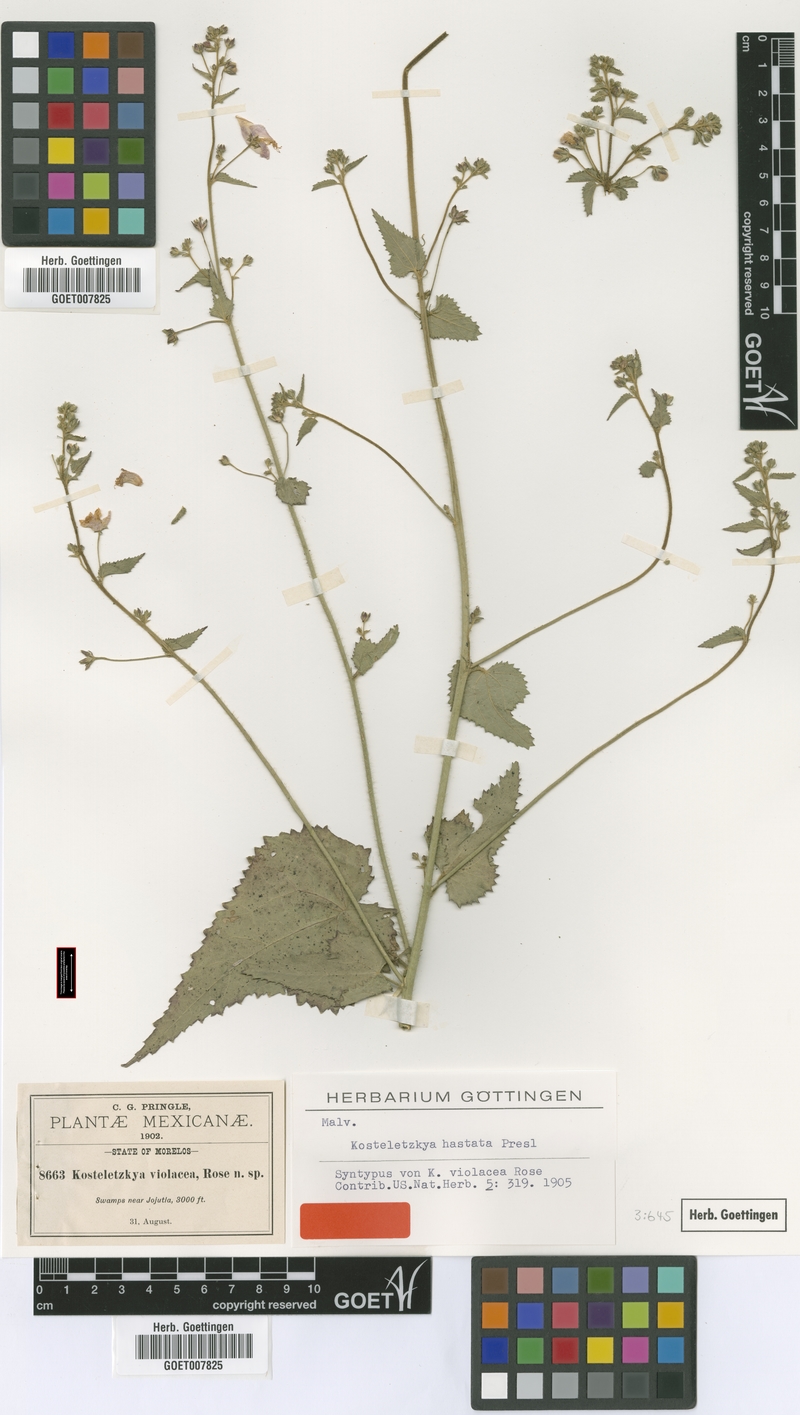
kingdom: Plantae
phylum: Tracheophyta
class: Magnoliopsida
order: Malvales
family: Malvaceae
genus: Kosteletzkya
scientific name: Kosteletzkya depressa
